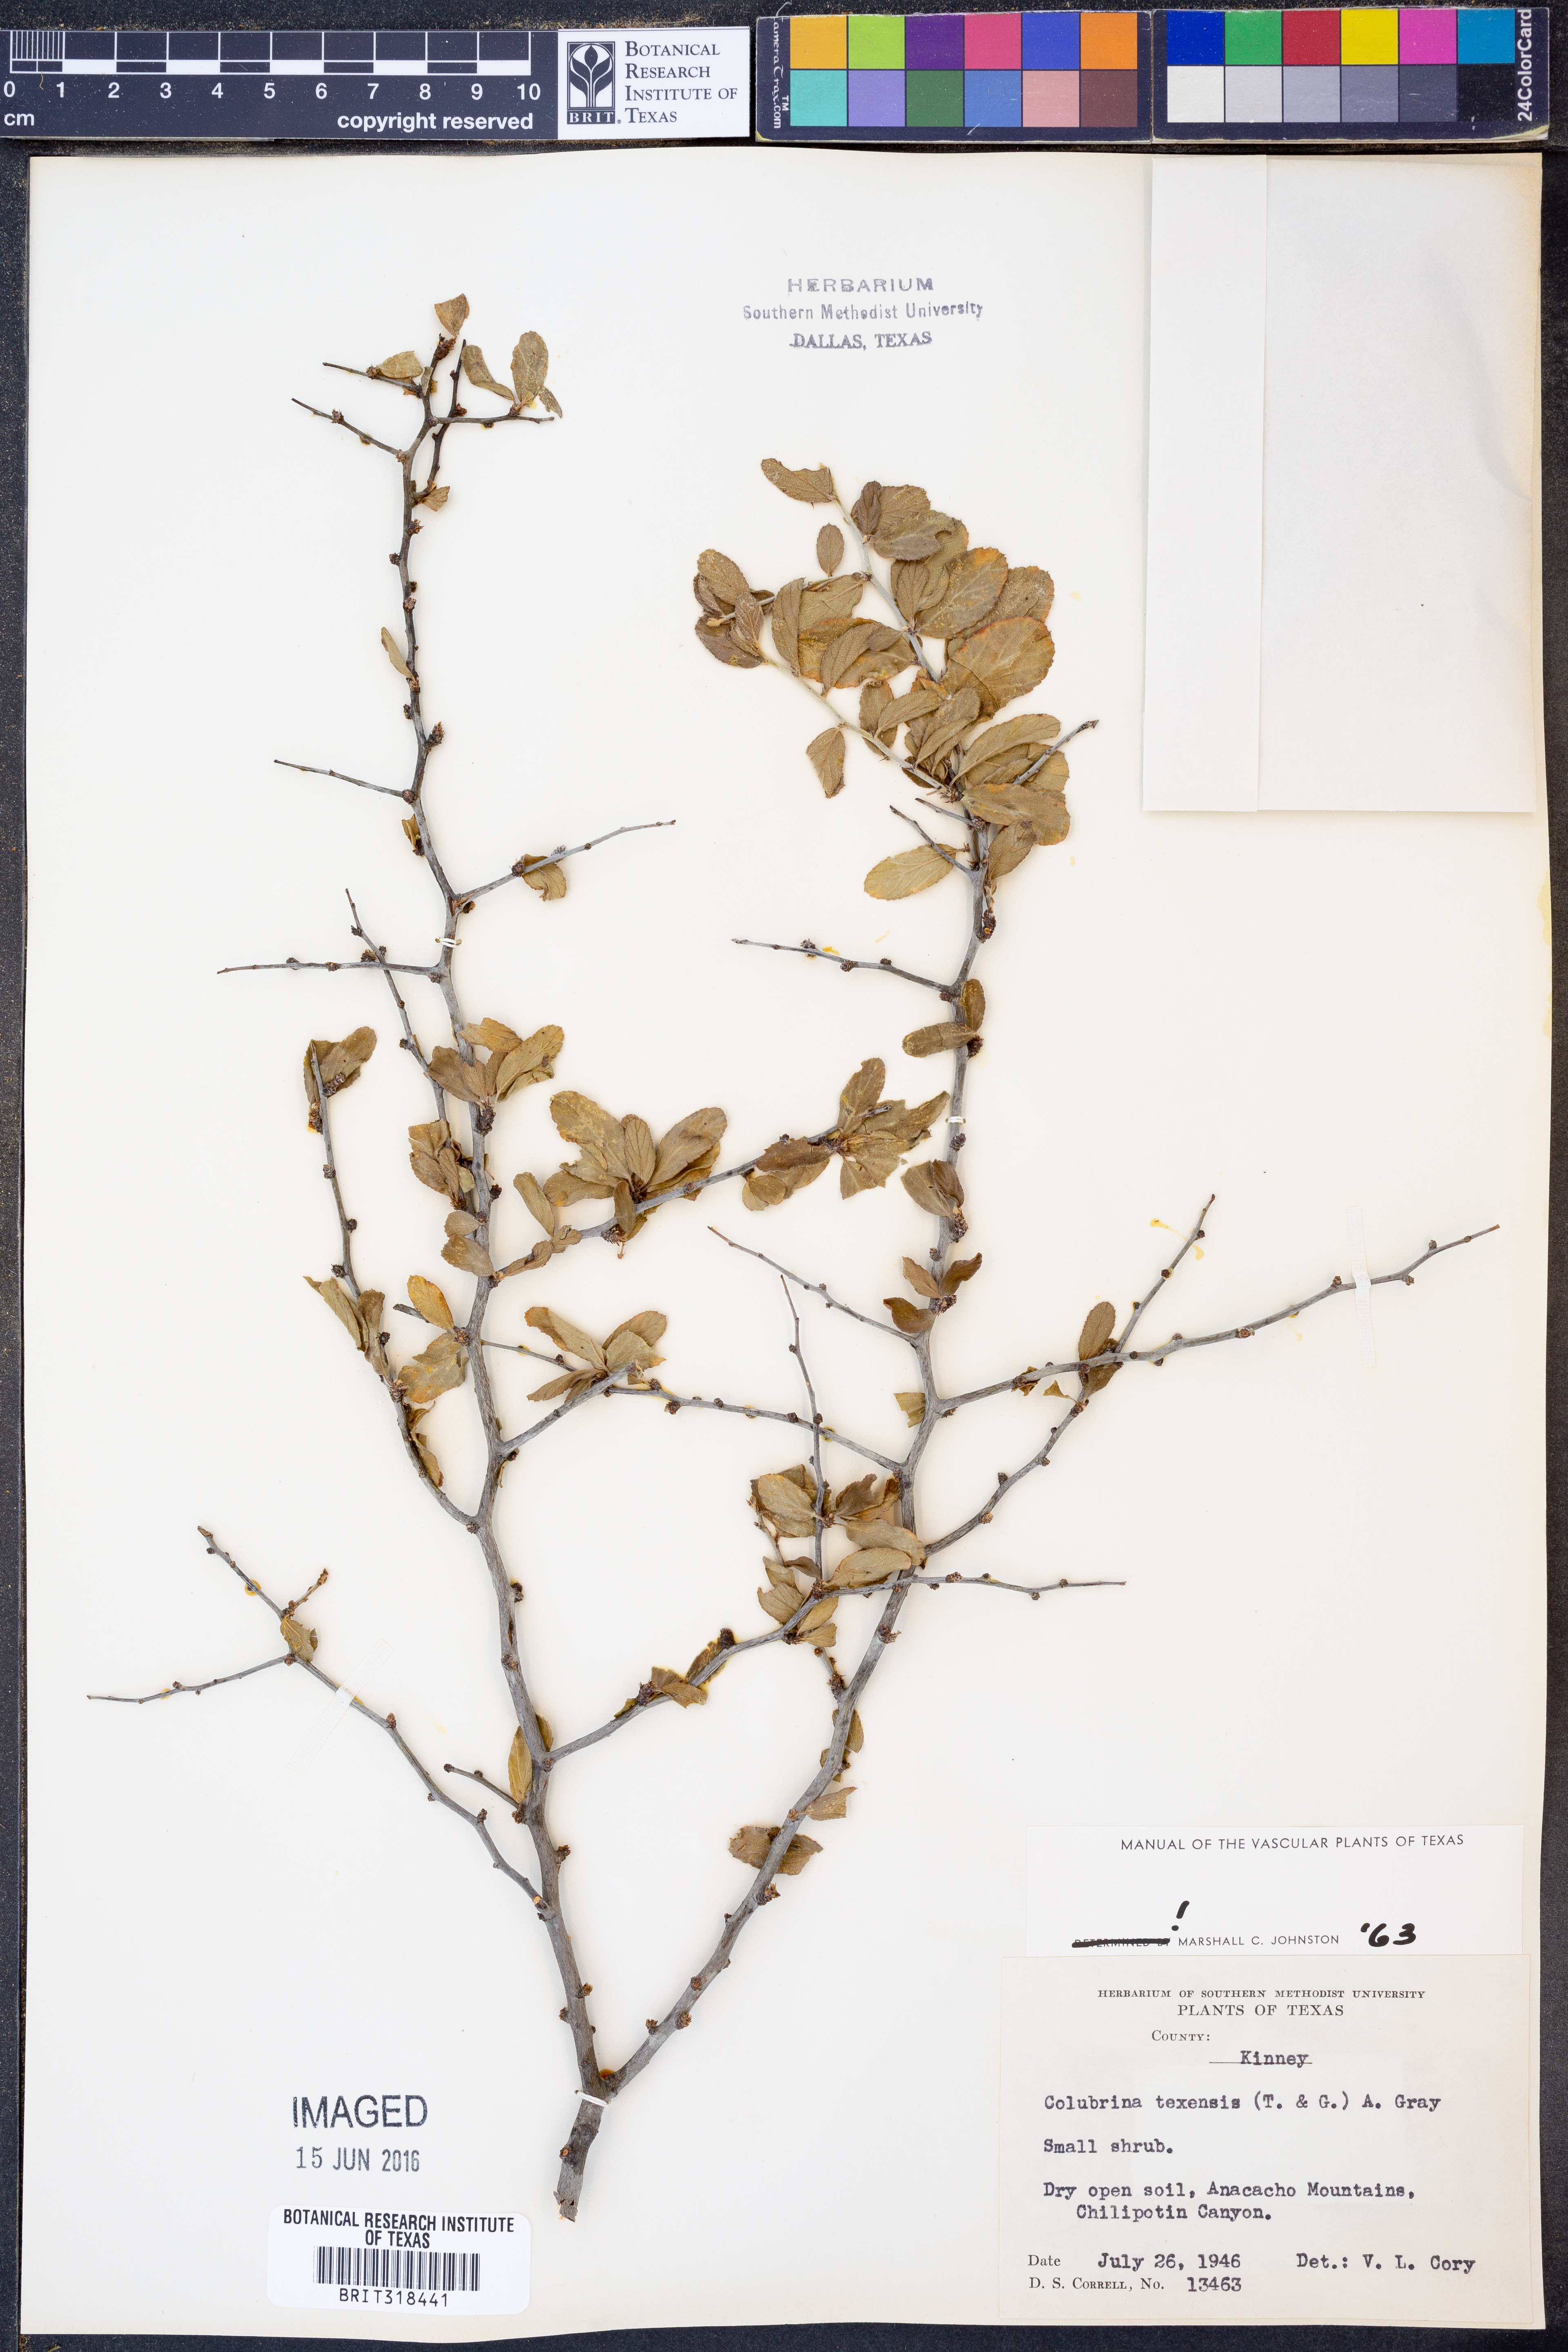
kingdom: Plantae
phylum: Tracheophyta
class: Magnoliopsida
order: Rosales
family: Rhamnaceae
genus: Colubrina
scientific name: Colubrina texensis
